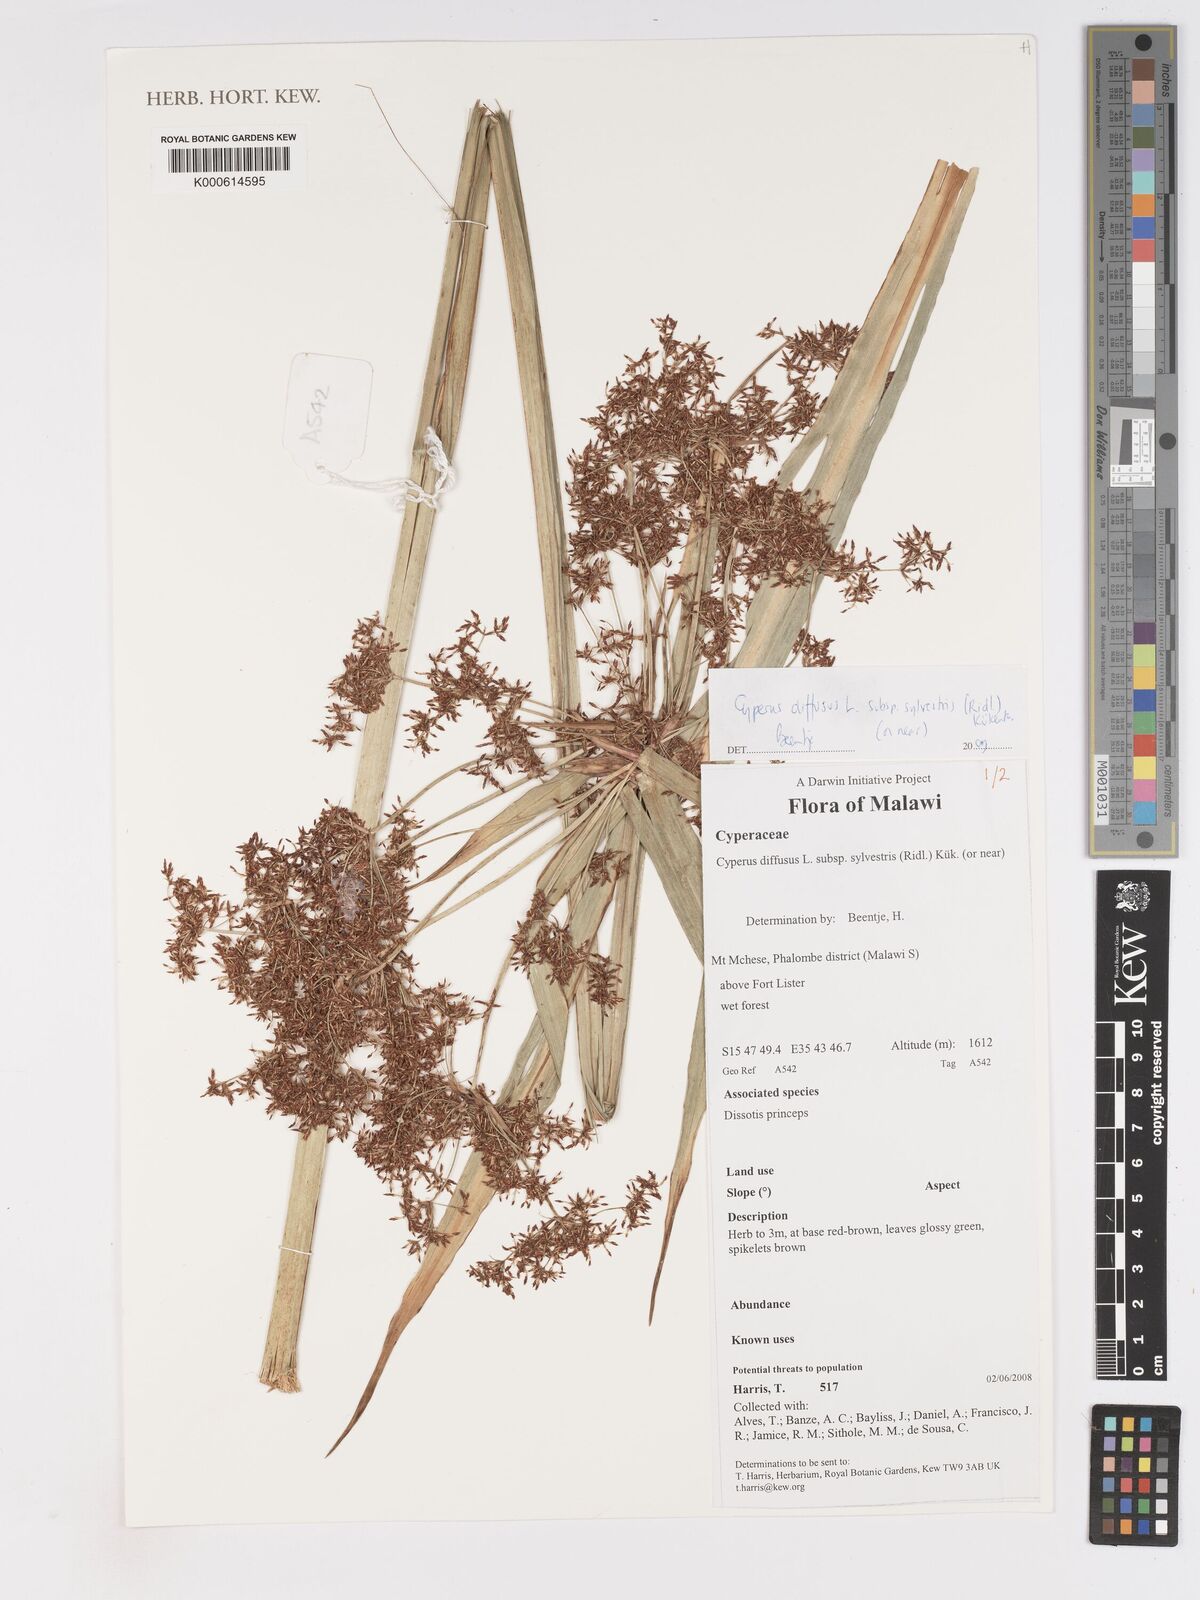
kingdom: Plantae
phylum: Tracheophyta
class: Liliopsida
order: Poales
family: Cyperaceae
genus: Cyperus
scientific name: Cyperus
